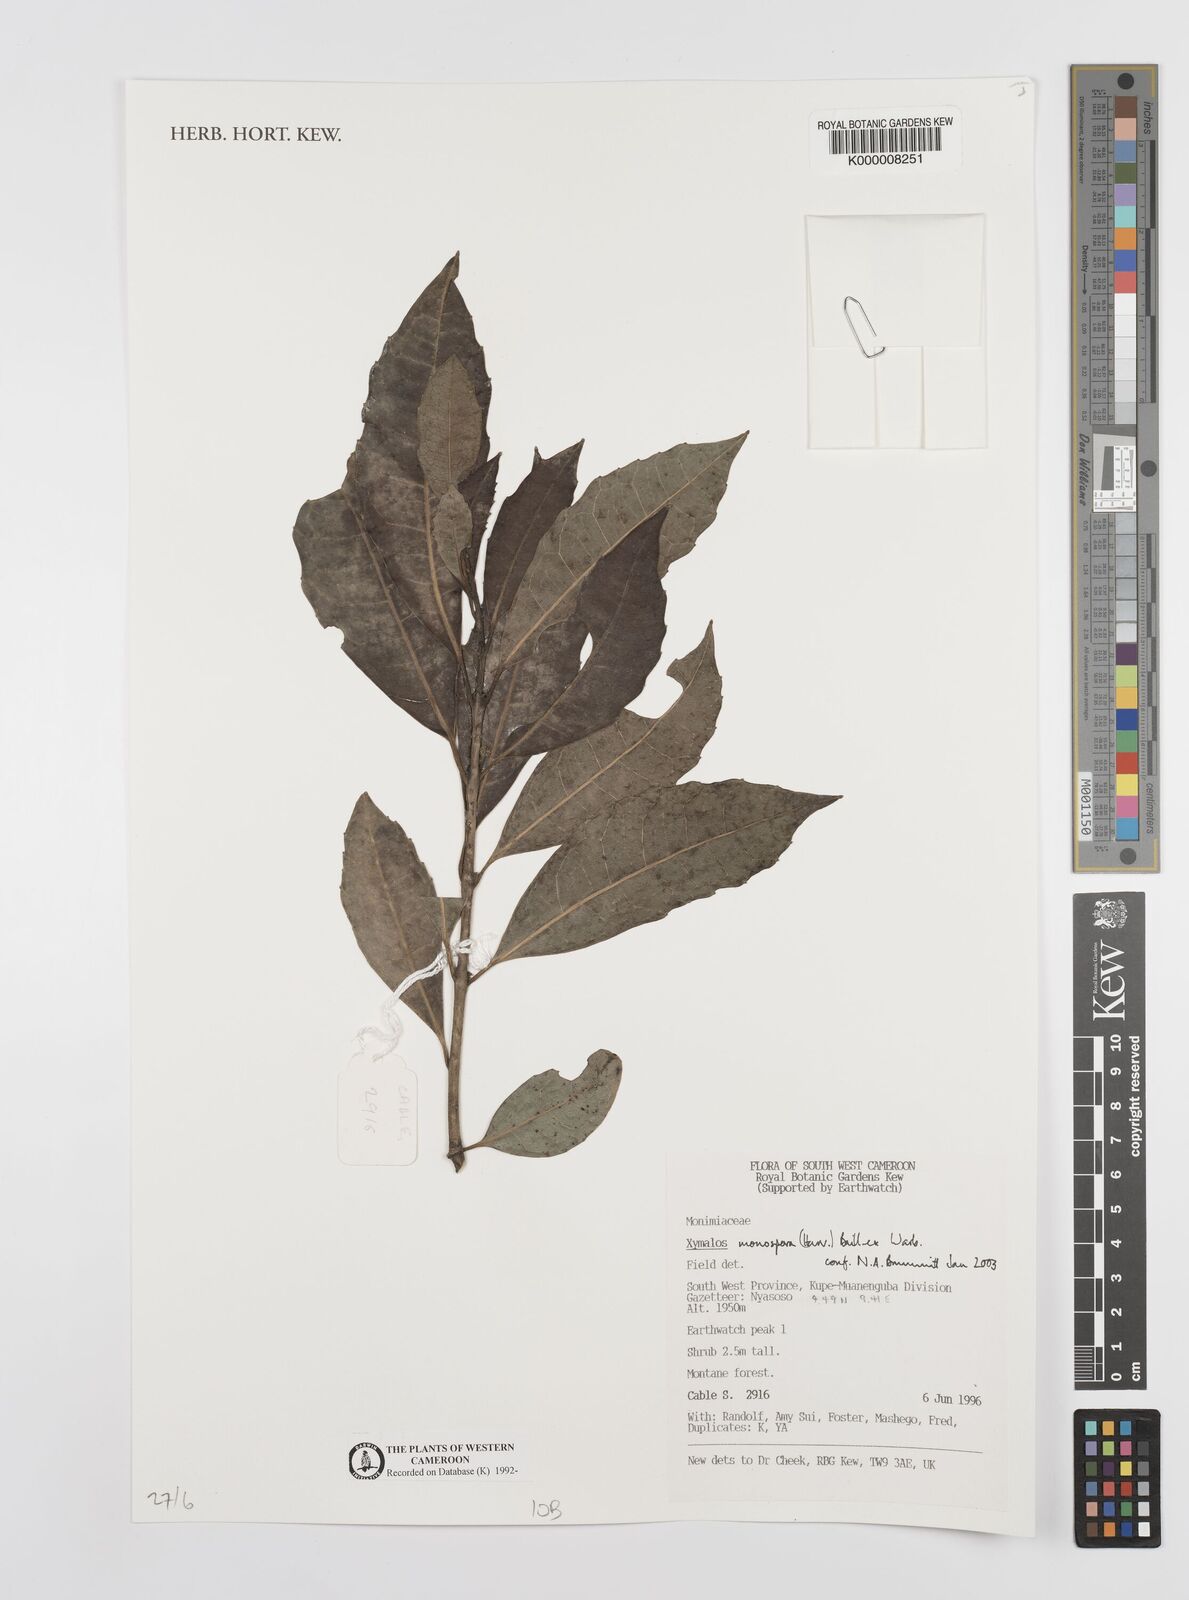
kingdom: Plantae
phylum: Tracheophyta
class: Magnoliopsida
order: Laurales
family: Monimiaceae
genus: Xymalos
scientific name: Xymalos
